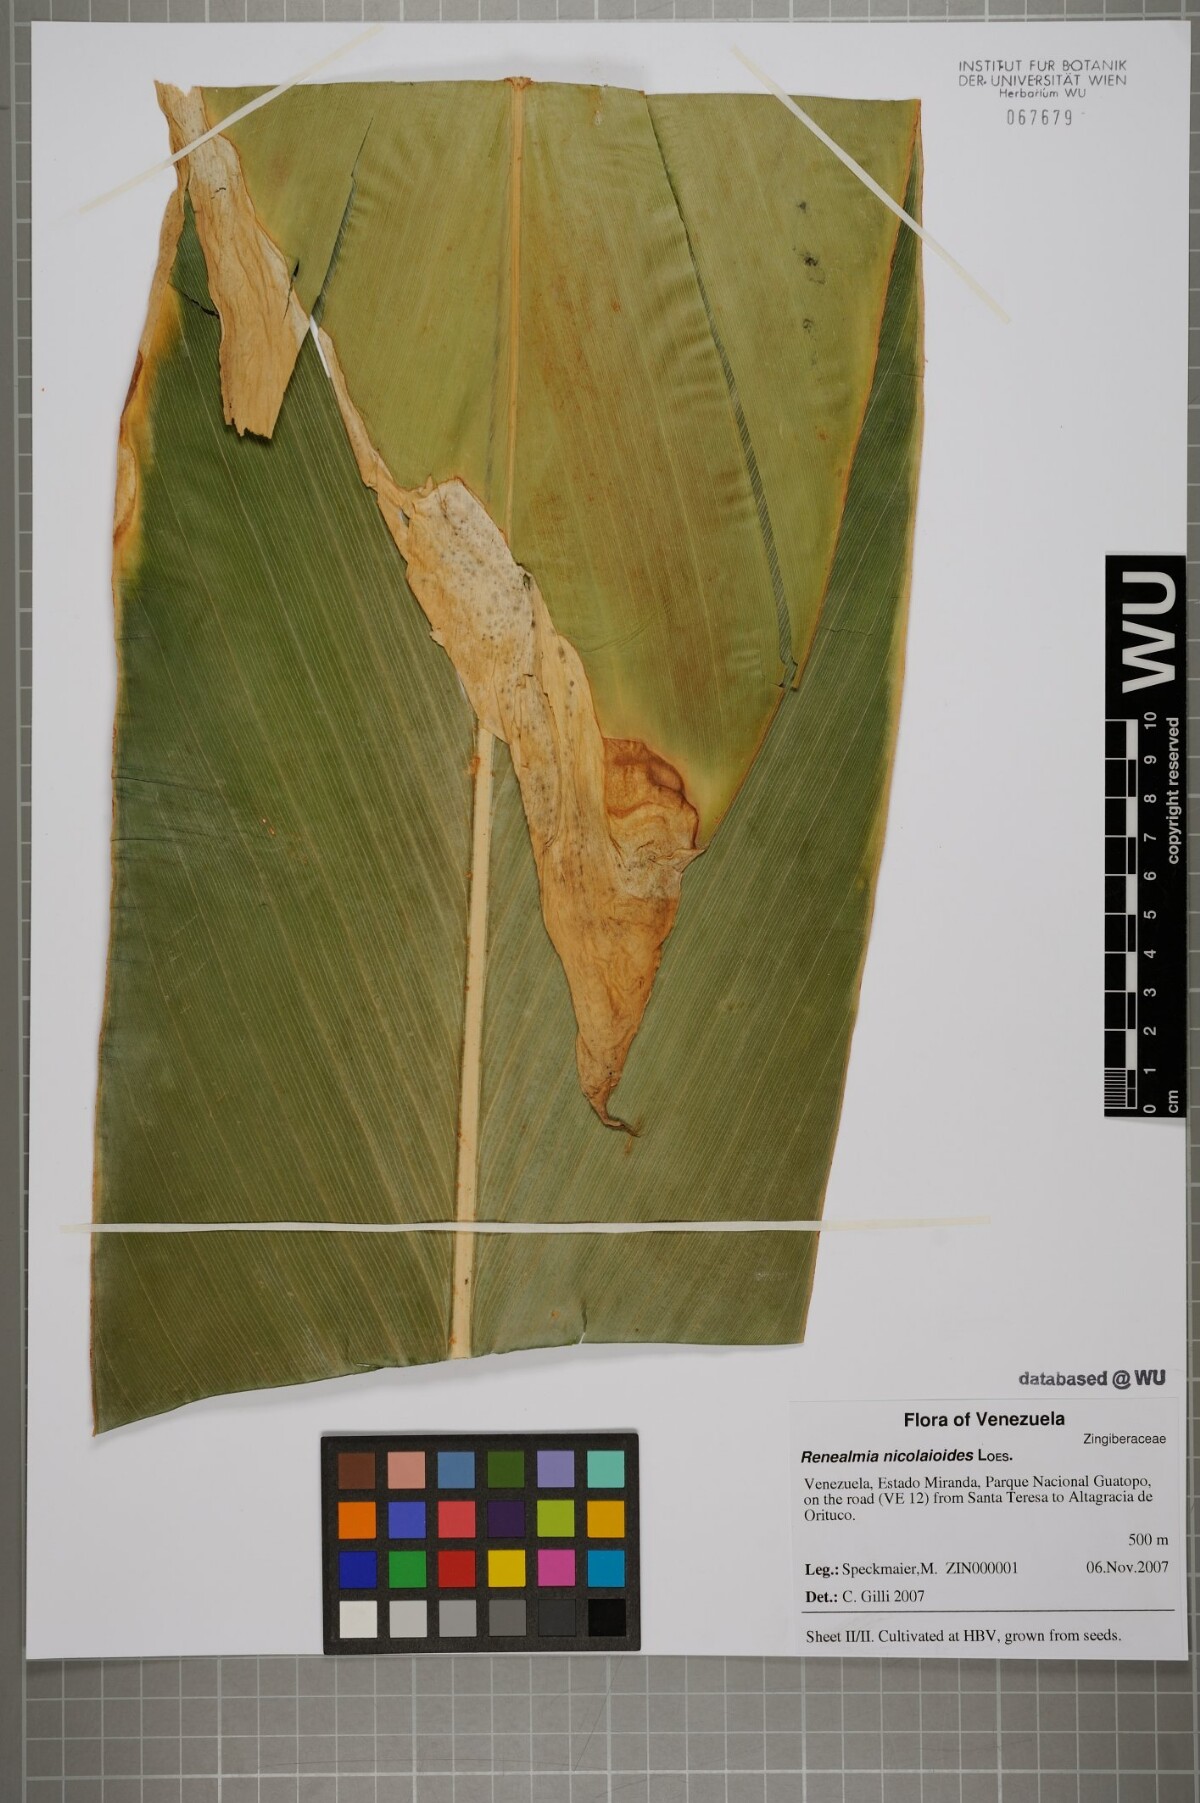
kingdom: Plantae
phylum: Tracheophyta
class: Liliopsida
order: Zingiberales
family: Zingiberaceae
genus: Renealmia
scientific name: Renealmia nicolaioides
